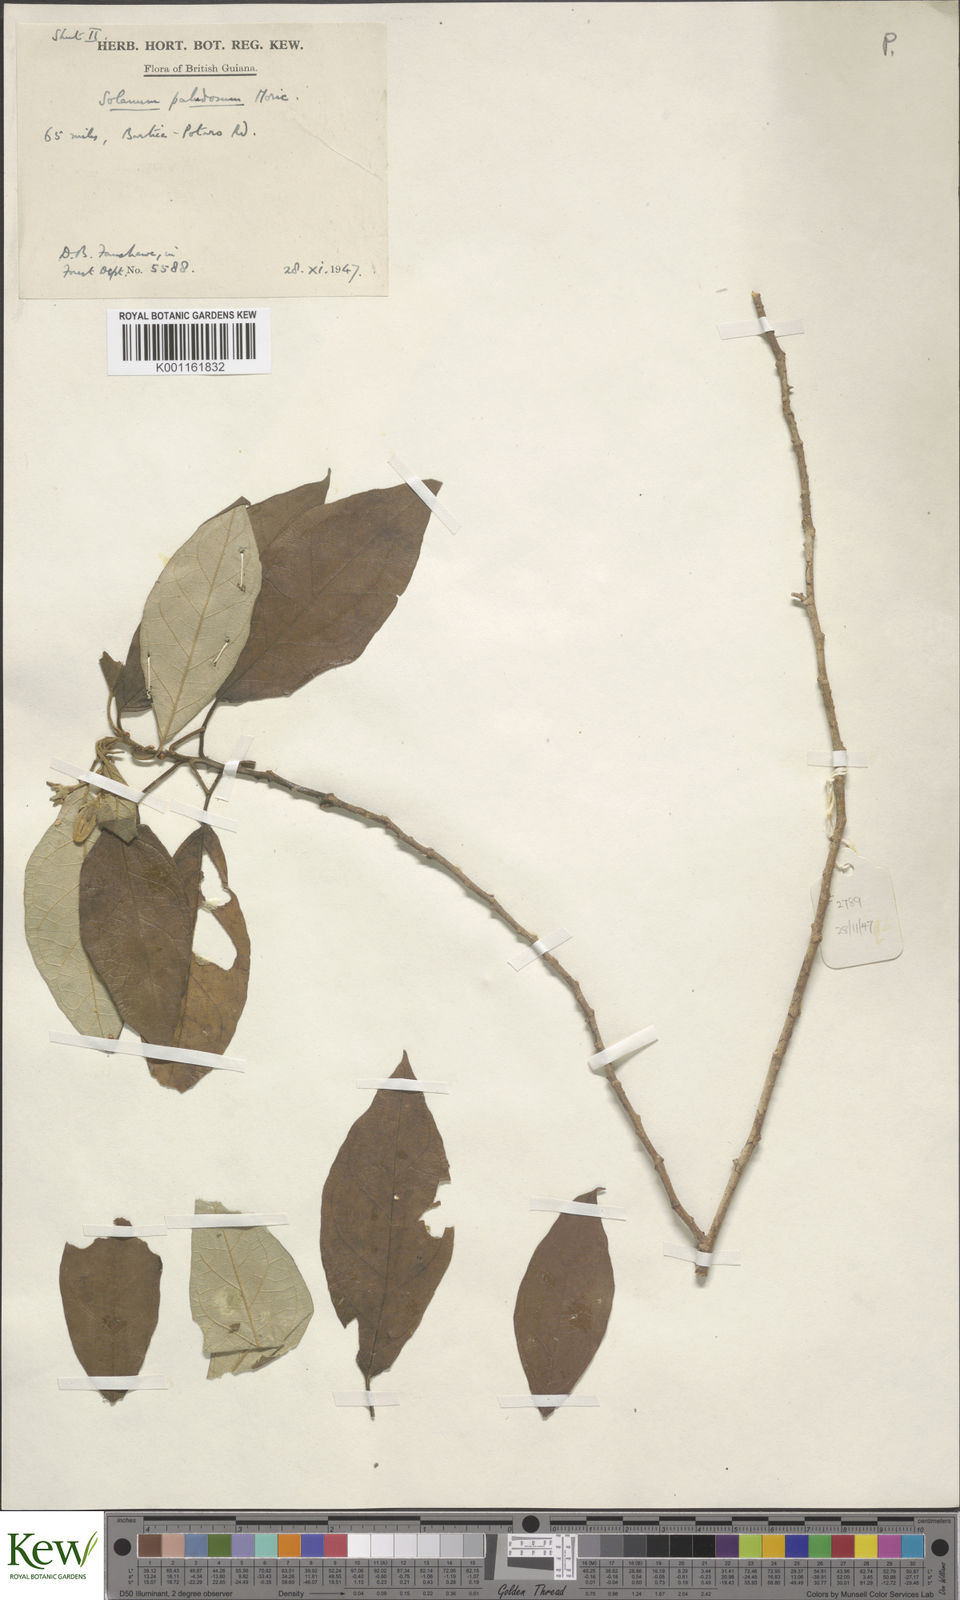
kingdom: Plantae
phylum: Tracheophyta
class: Magnoliopsida
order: Solanales
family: Solanaceae
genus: Solanum
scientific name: Solanum paludosum
